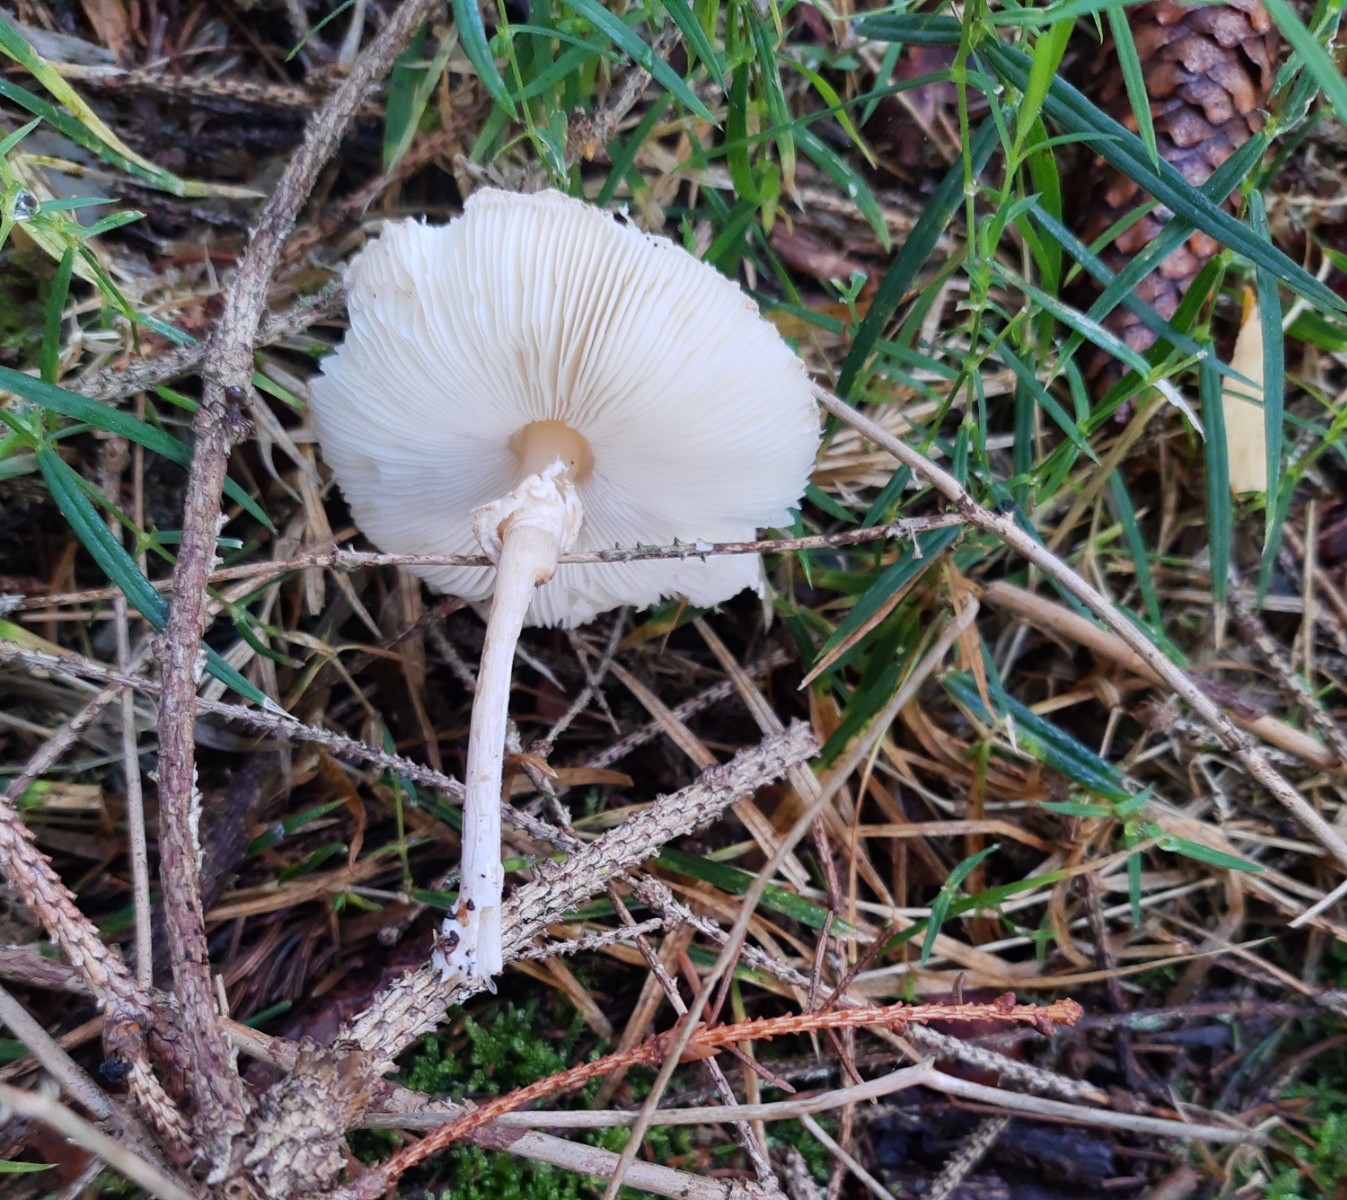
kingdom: Fungi
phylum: Basidiomycota
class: Agaricomycetes
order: Agaricales
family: Agaricaceae
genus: Leucoagaricus
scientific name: Leucoagaricus nympharum
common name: gran-silkehat
